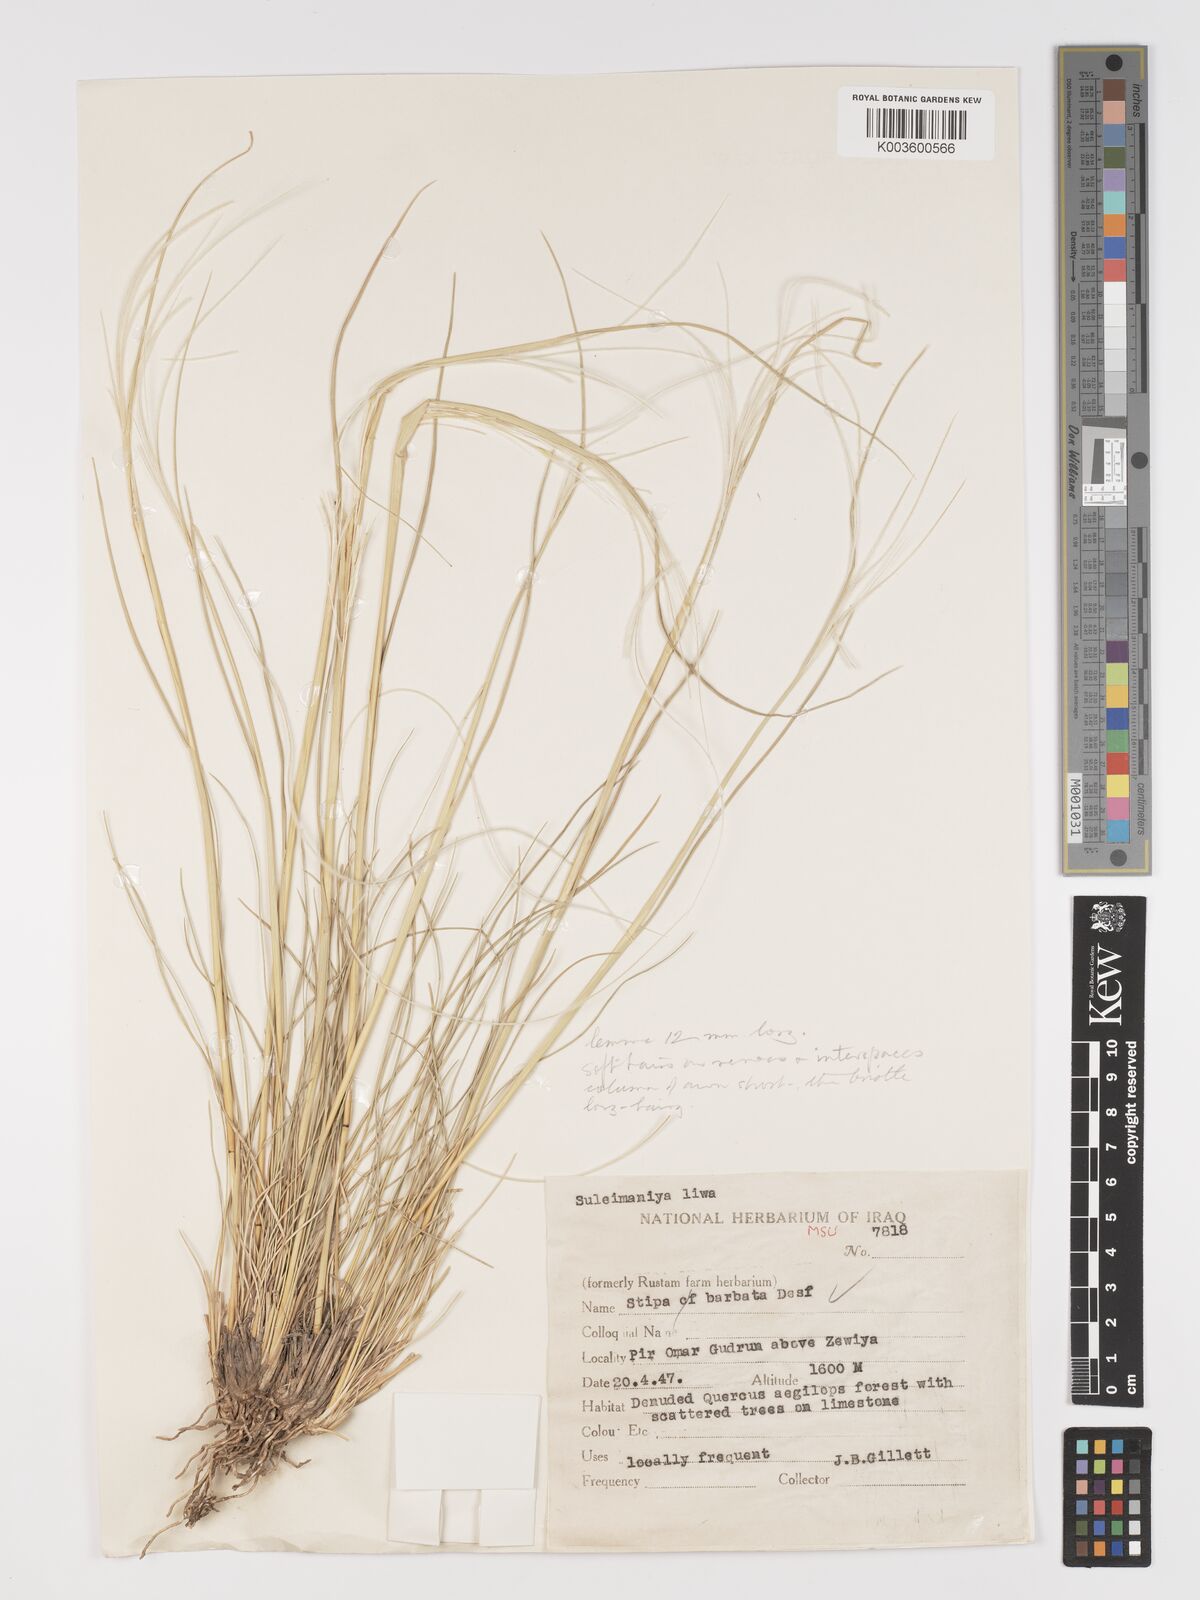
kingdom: Plantae
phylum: Tracheophyta
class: Liliopsida
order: Poales
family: Poaceae
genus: Stipa
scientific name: Stipa barbata
